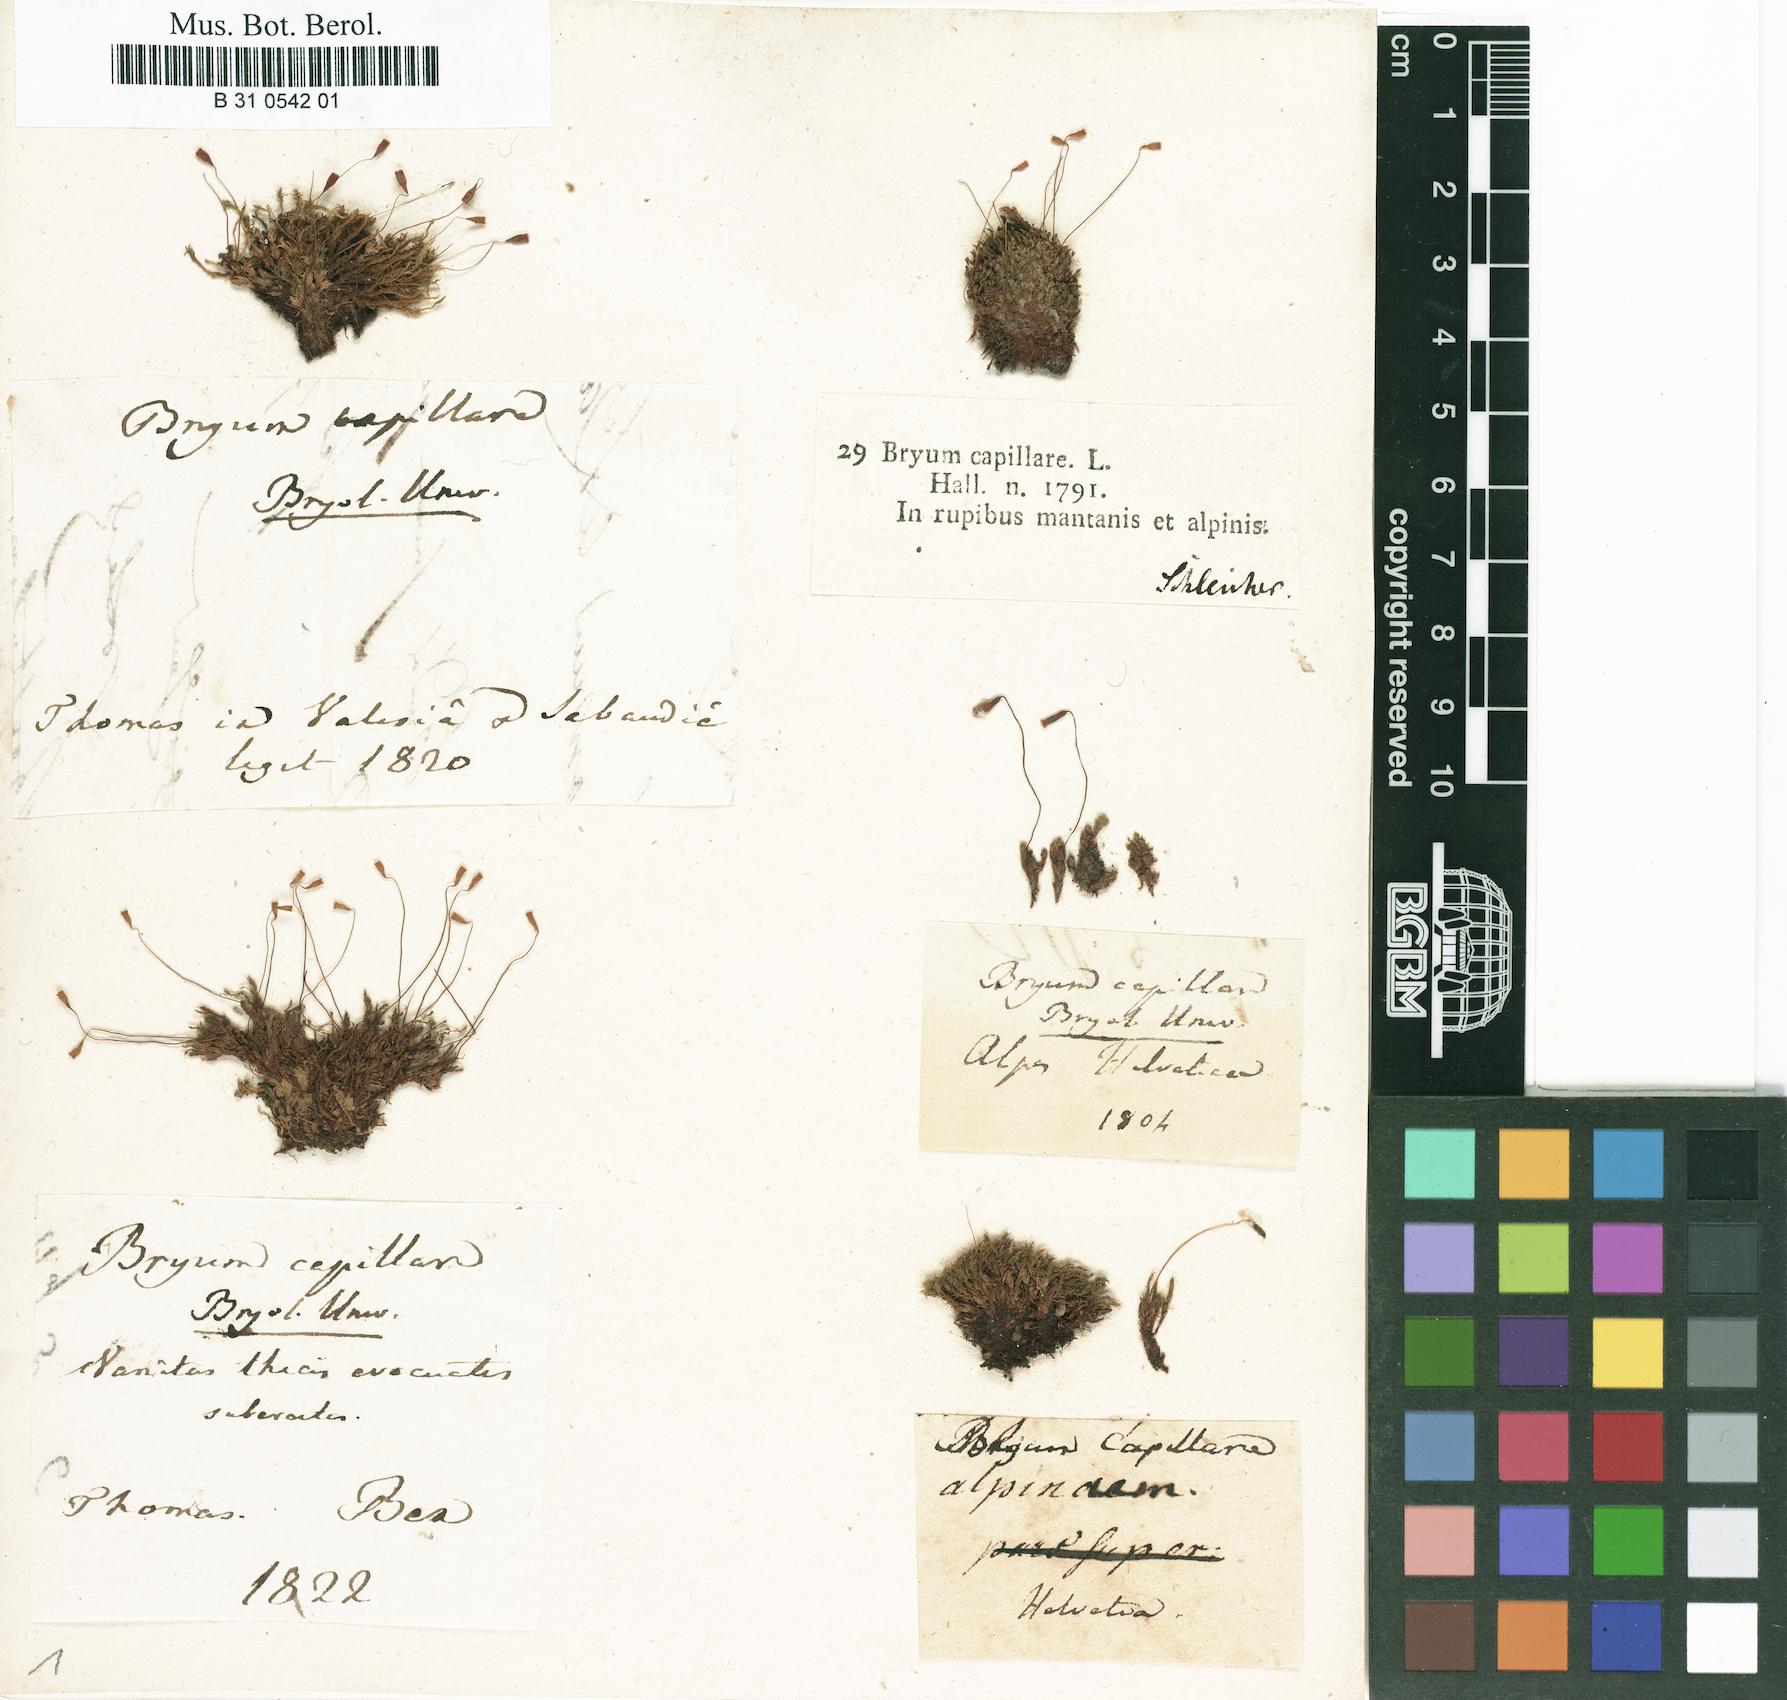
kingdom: Plantae
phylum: Bryophyta
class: Bryopsida
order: Bryales
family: Bryaceae
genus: Rosulabryum
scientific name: Rosulabryum capillare
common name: Capillary thread-moss
